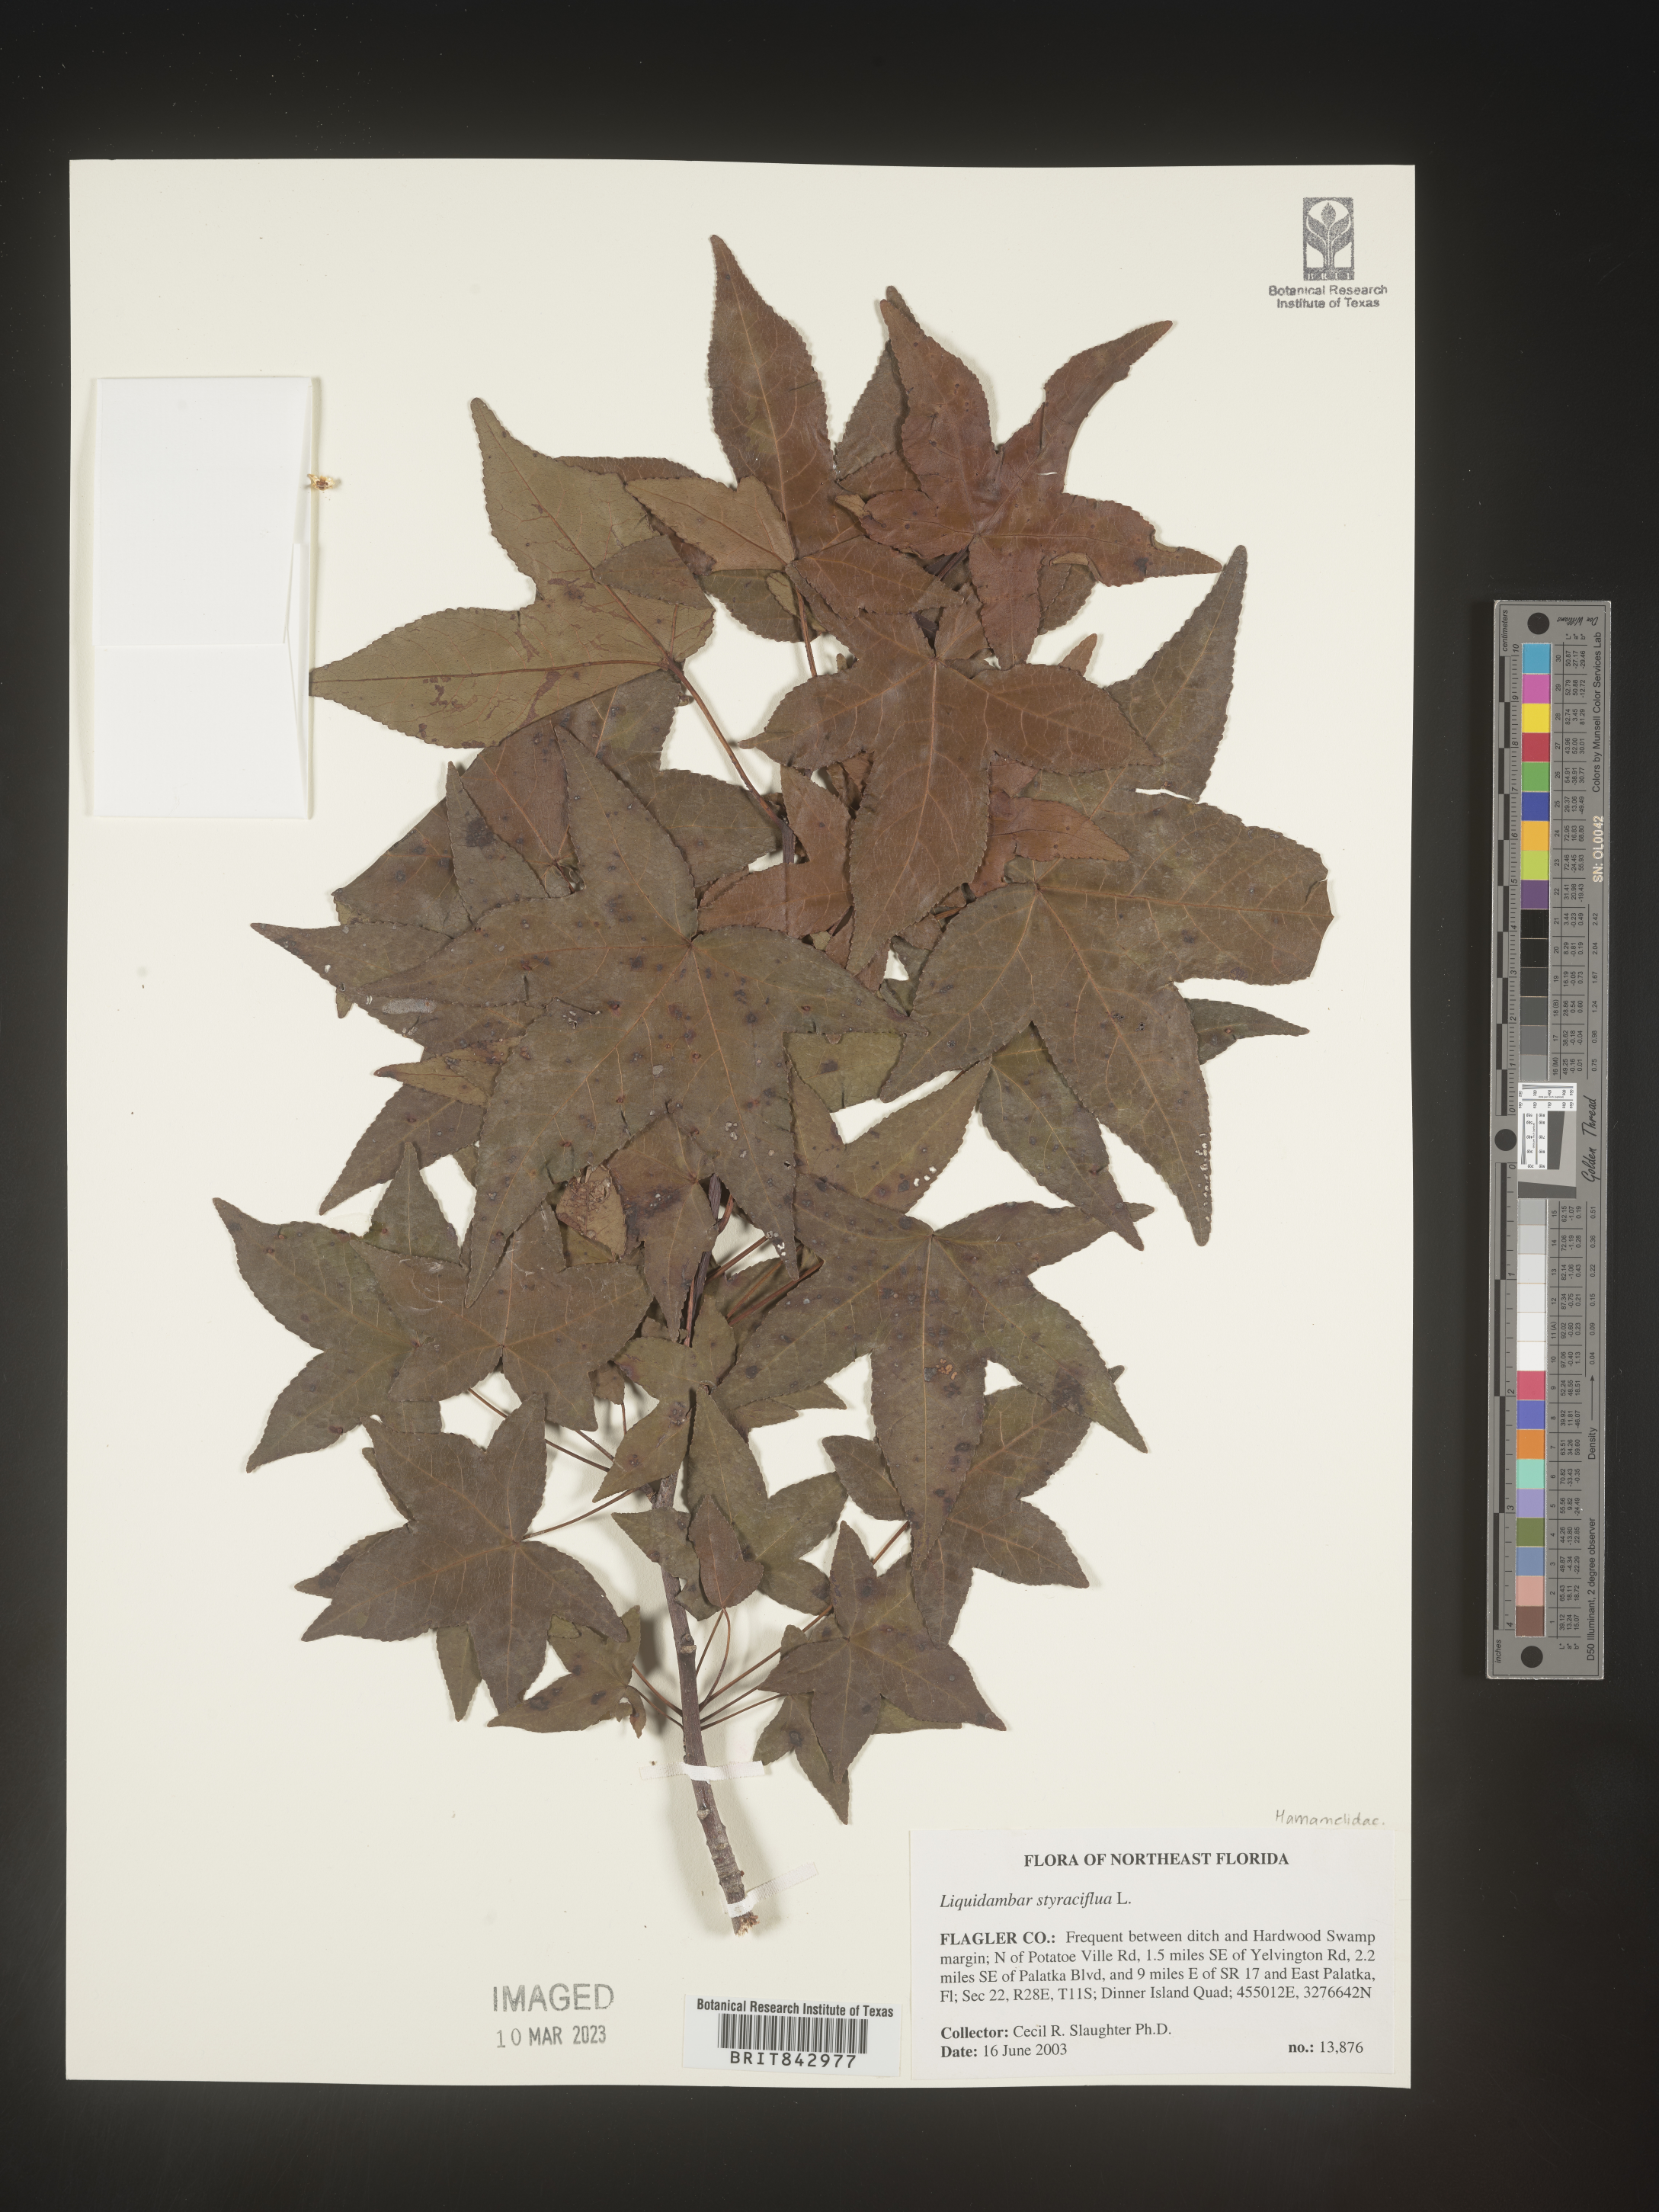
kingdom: Plantae
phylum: Tracheophyta
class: Magnoliopsida
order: Saxifragales
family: Altingiaceae
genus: Liquidambar
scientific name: Liquidambar
